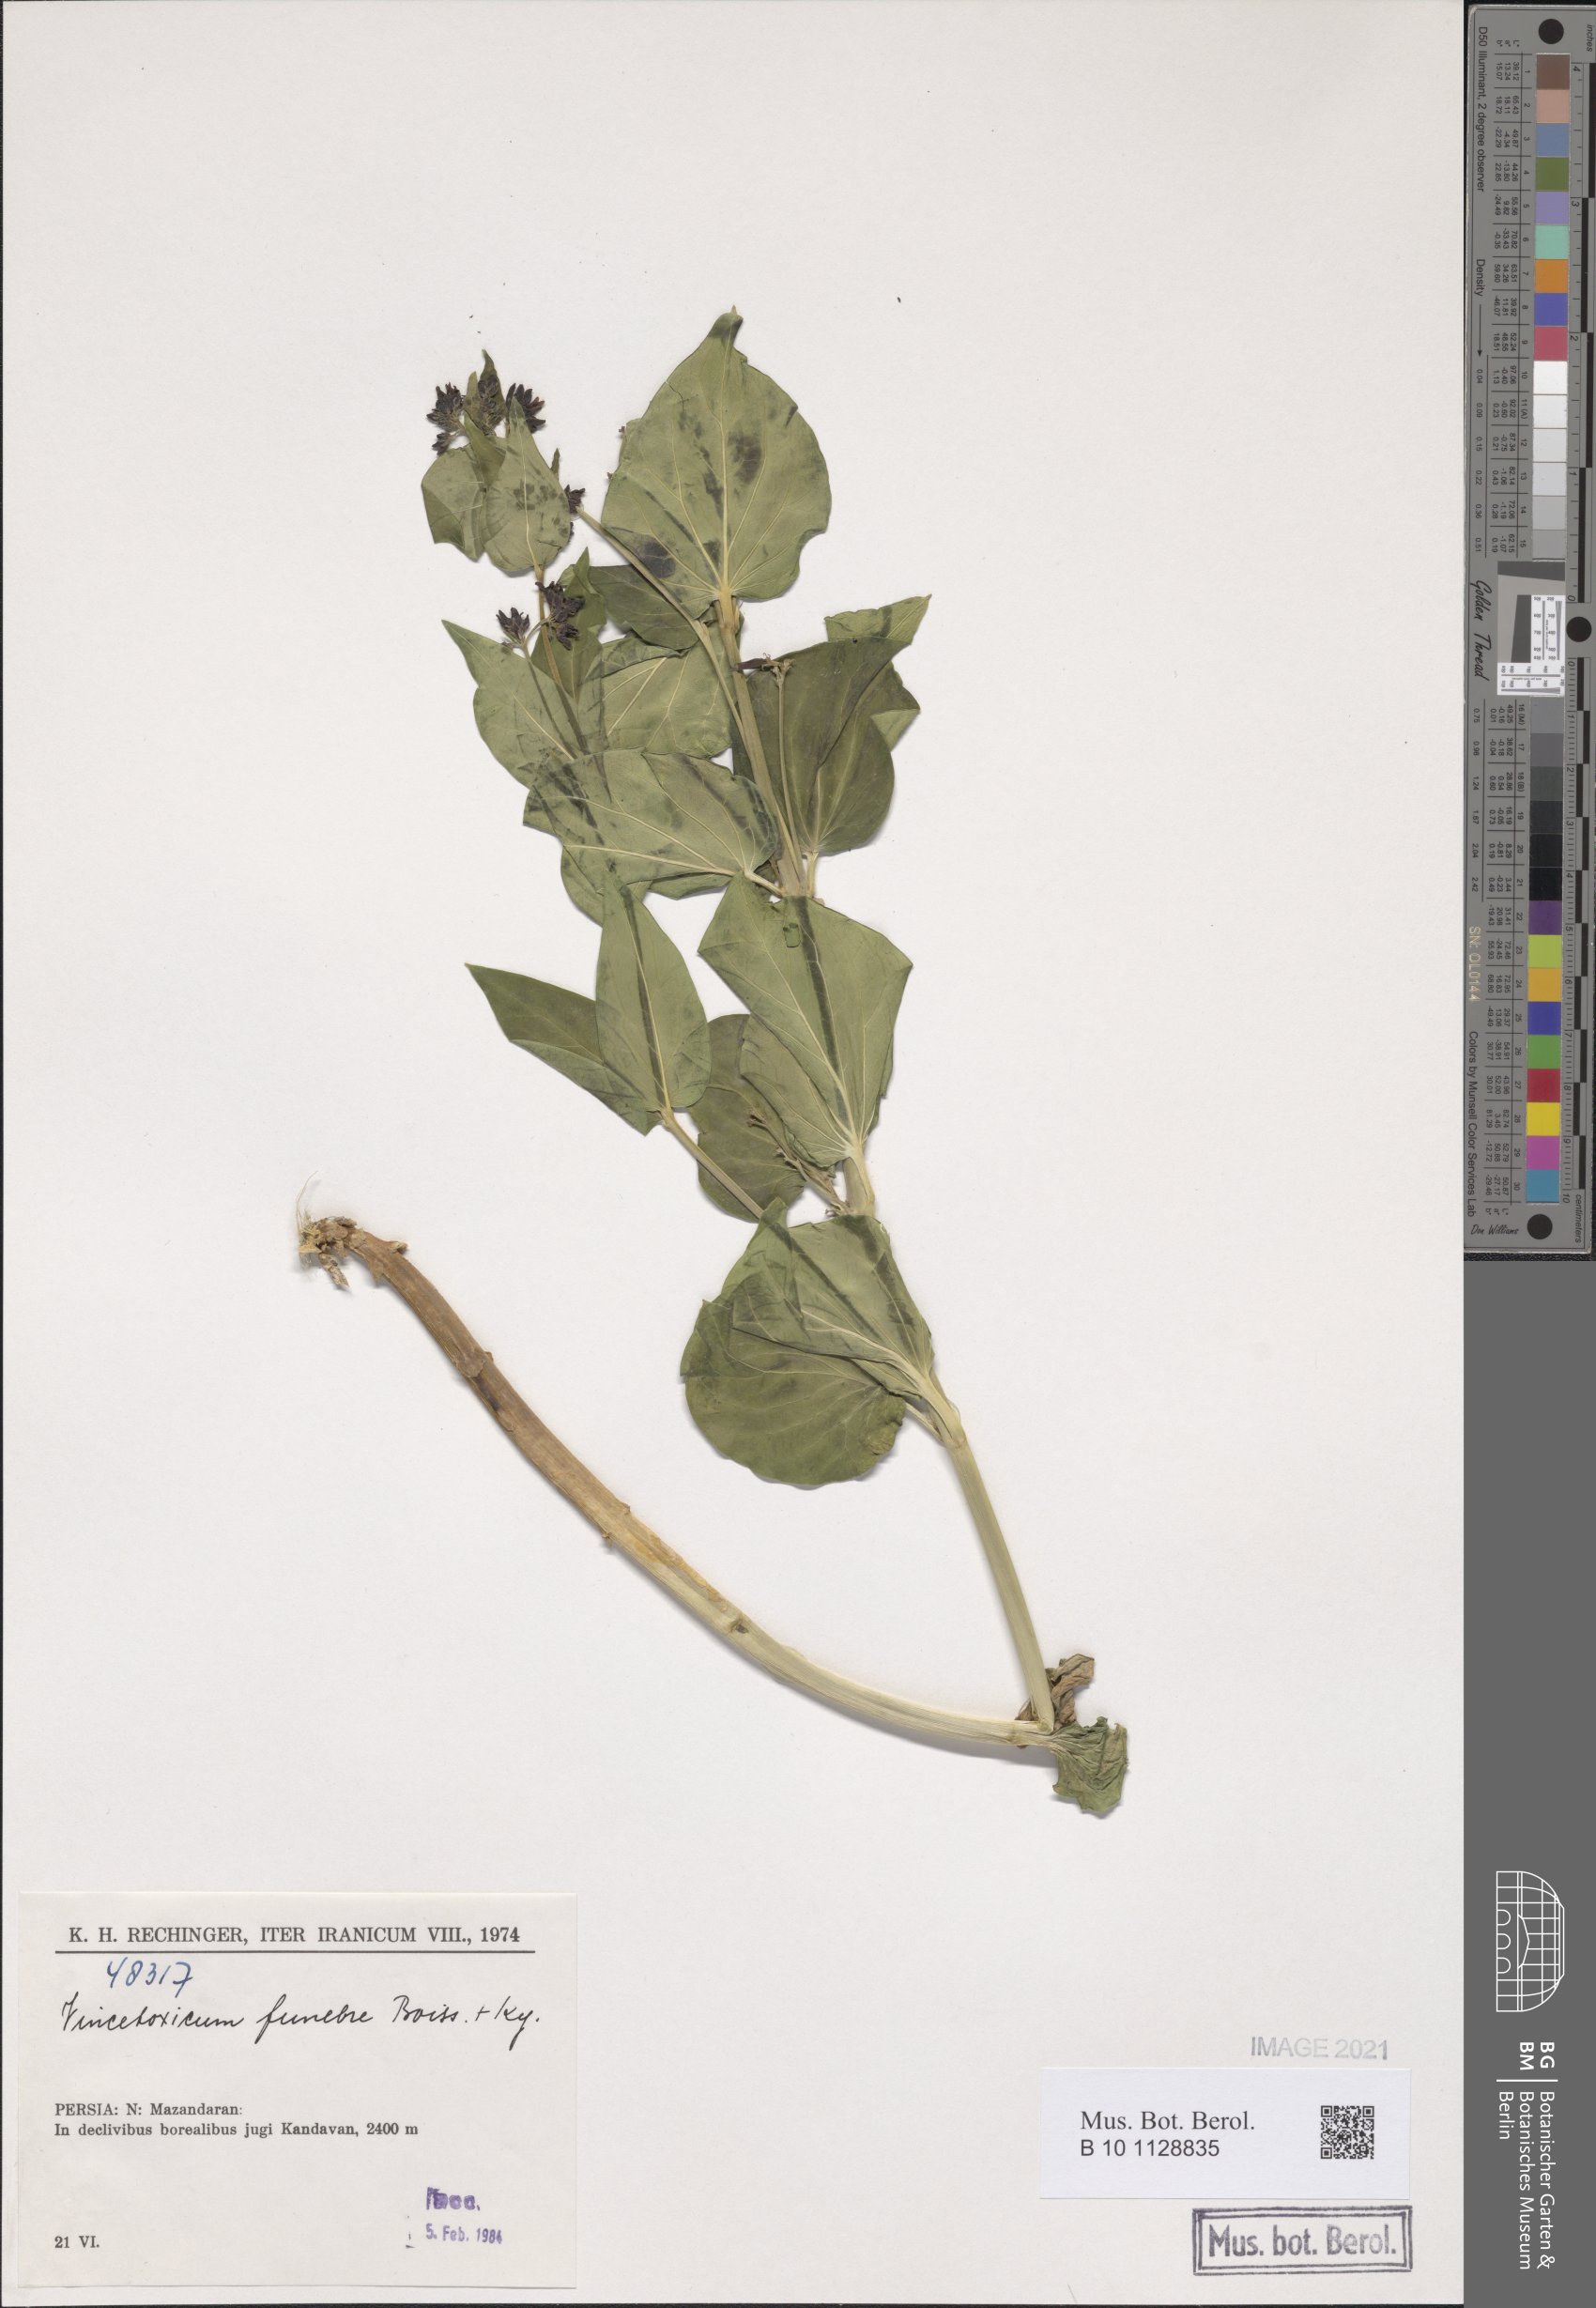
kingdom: Plantae
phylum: Tracheophyta
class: Magnoliopsida
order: Gentianales
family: Apocynaceae
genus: Vincetoxicum
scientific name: Vincetoxicum funebre
